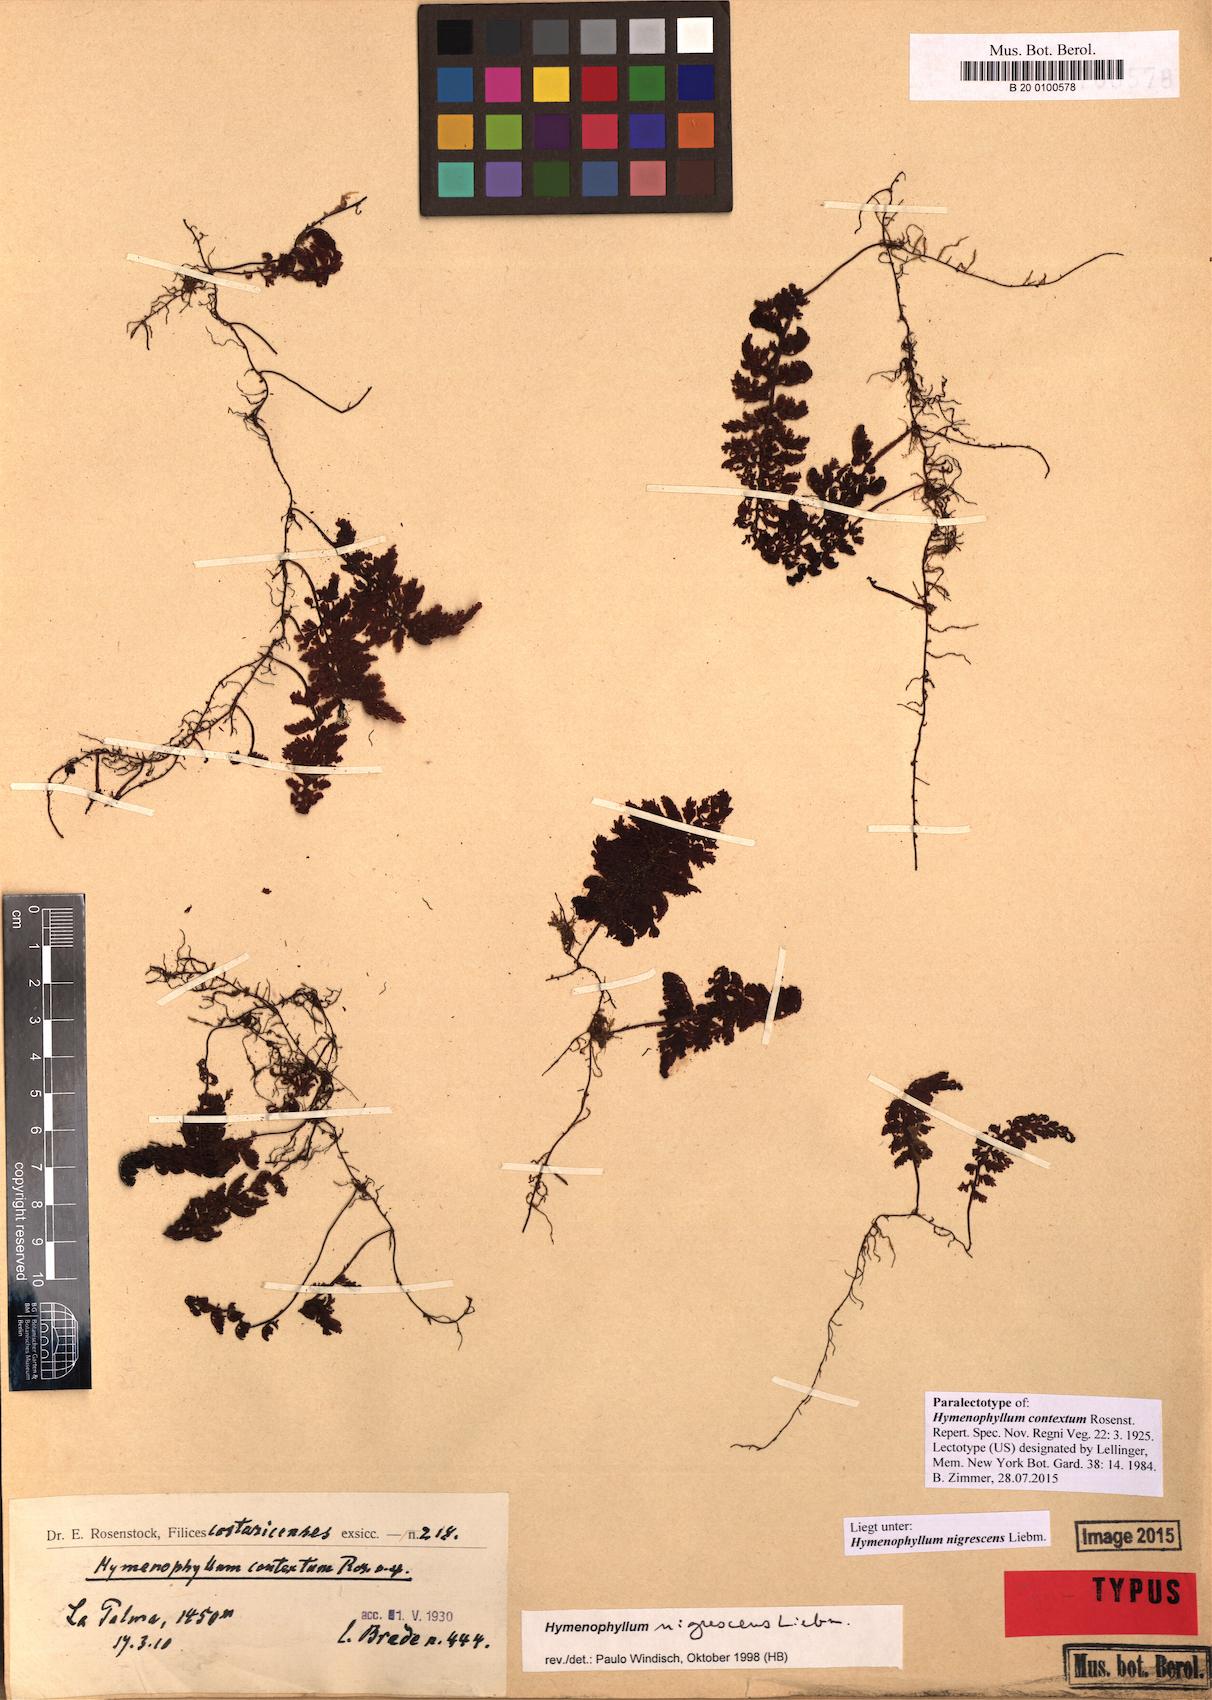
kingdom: Plantae
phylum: Tracheophyta
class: Polypodiopsida
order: Hymenophyllales
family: Hymenophyllaceae
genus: Hymenophyllum
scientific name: Hymenophyllum myriocarpum
